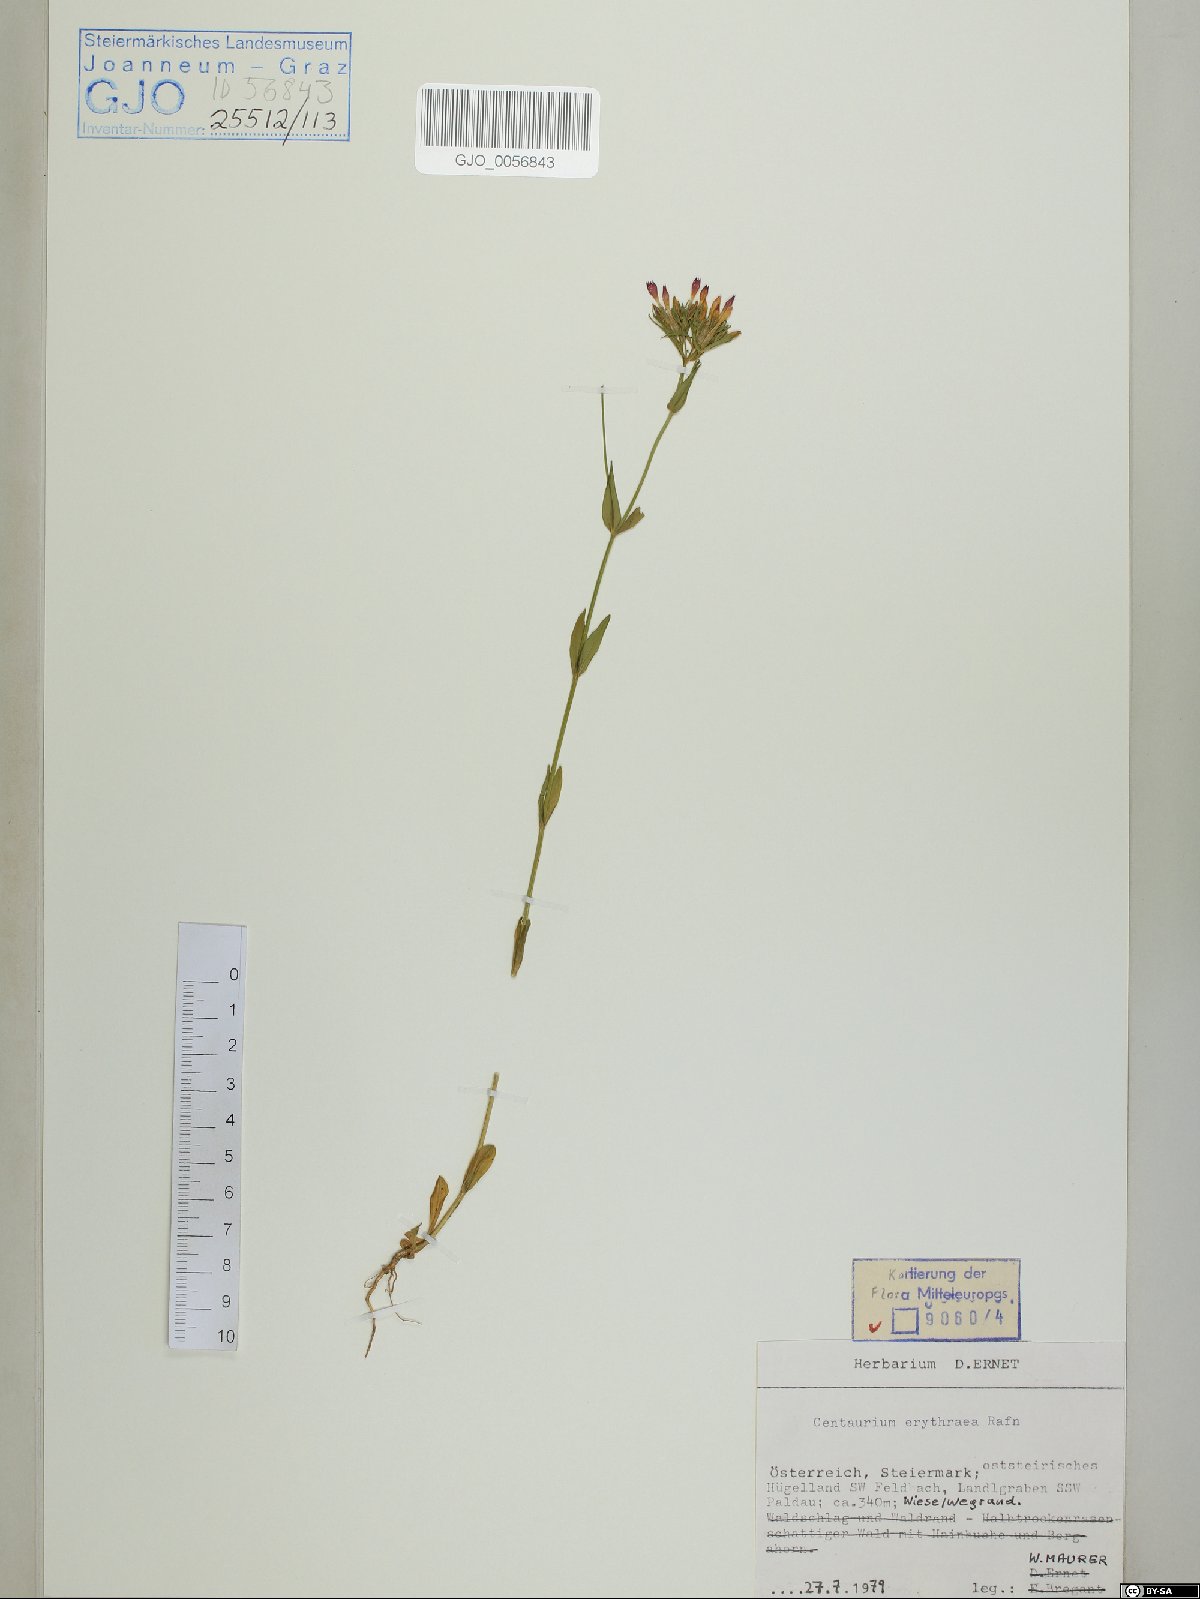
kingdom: Plantae
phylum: Tracheophyta
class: Magnoliopsida
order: Gentianales
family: Gentianaceae
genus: Centaurium
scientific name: Centaurium erythraea
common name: Common centaury
